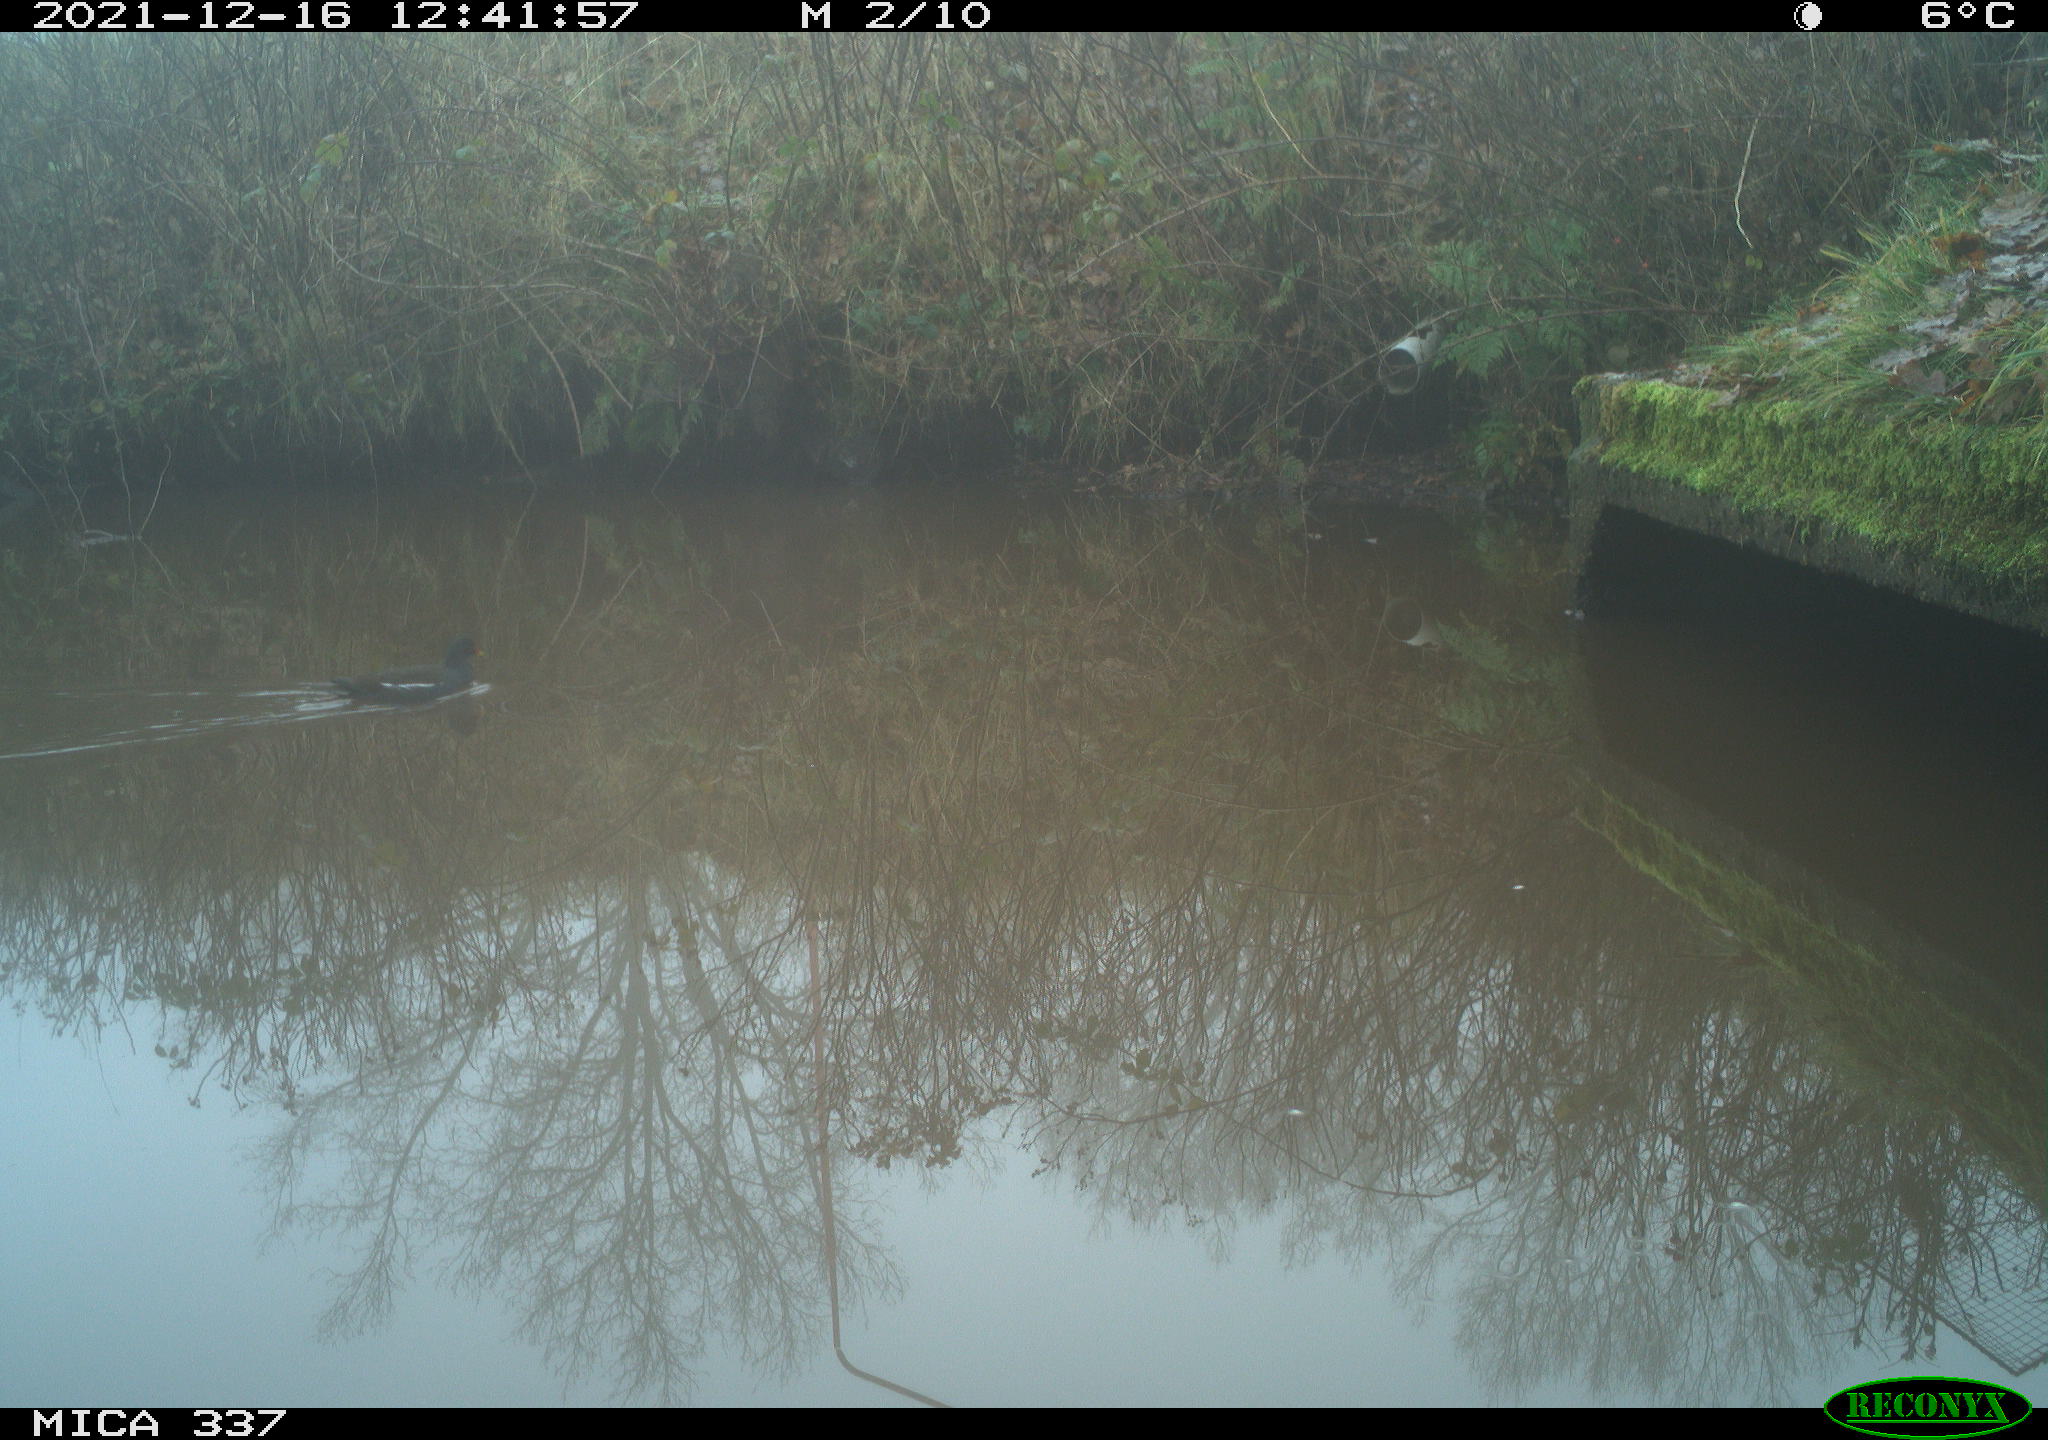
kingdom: Animalia
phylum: Chordata
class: Aves
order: Gruiformes
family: Rallidae
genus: Gallinula
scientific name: Gallinula chloropus
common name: Common moorhen
